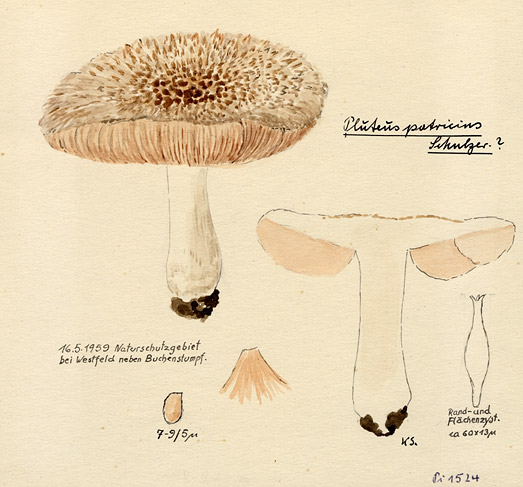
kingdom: Fungi
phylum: Basidiomycota
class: Agaricomycetes
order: Agaricales
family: Pluteaceae
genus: Pluteus
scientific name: Pluteus petasatus
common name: Scaly shield
